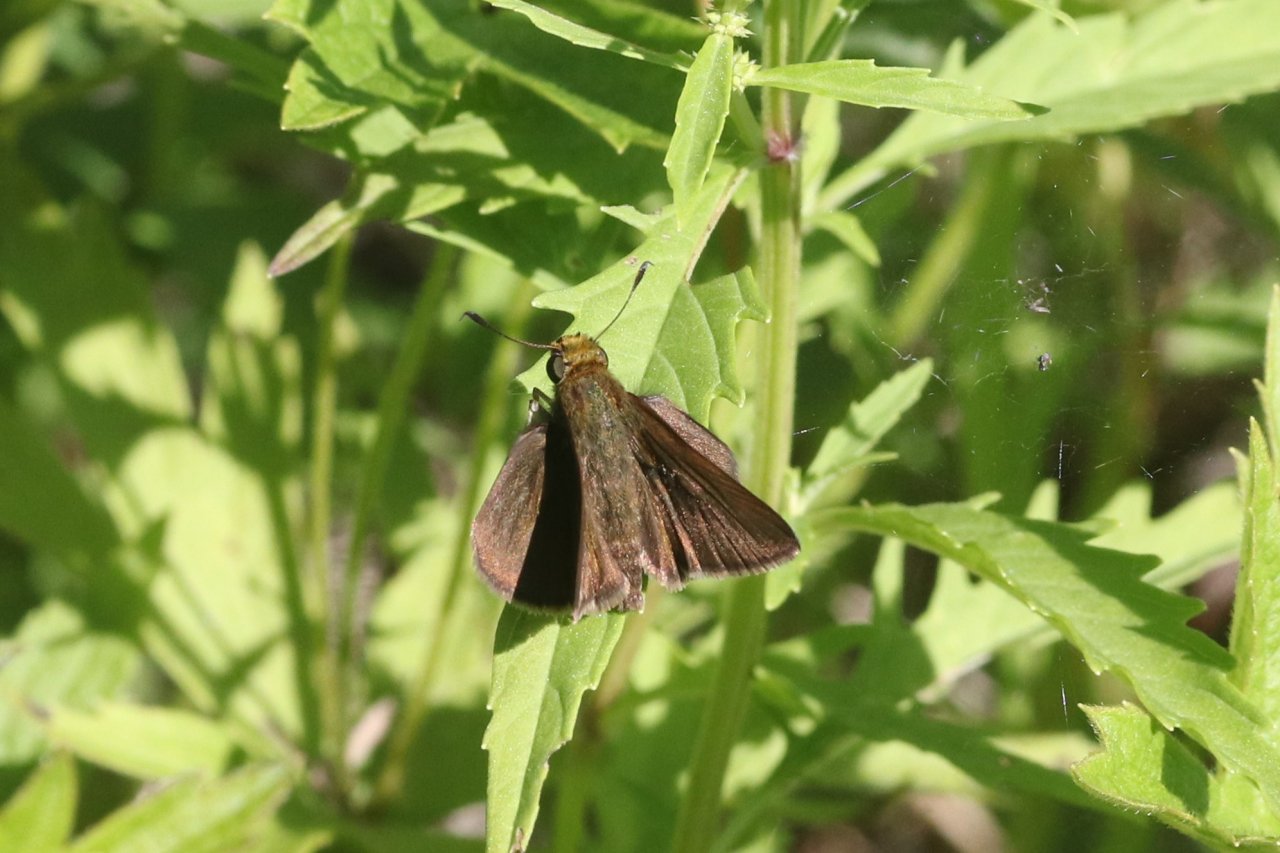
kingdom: Animalia
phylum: Arthropoda
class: Insecta
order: Lepidoptera
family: Hesperiidae
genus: Euphyes
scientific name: Euphyes vestris
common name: Dun Skipper
